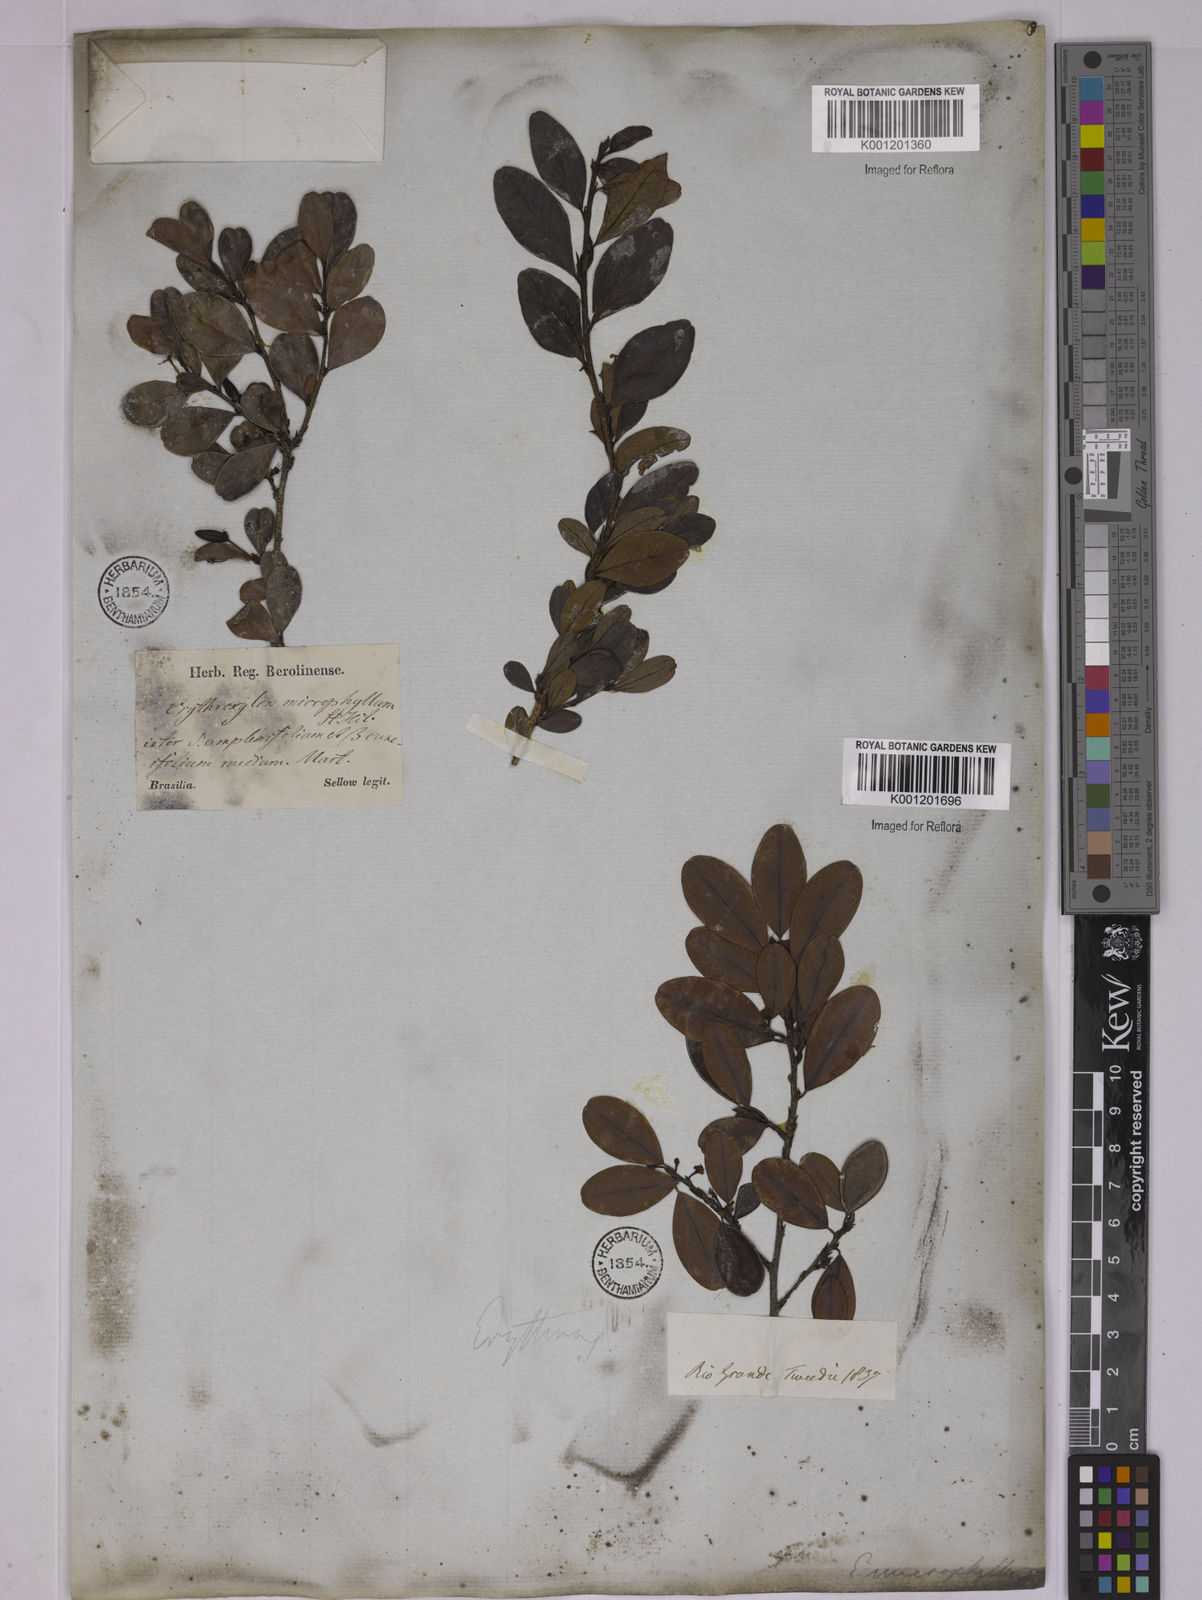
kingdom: Plantae
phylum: Tracheophyta
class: Magnoliopsida
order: Malpighiales
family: Erythroxylaceae
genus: Erythroxylum
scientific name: Erythroxylum
